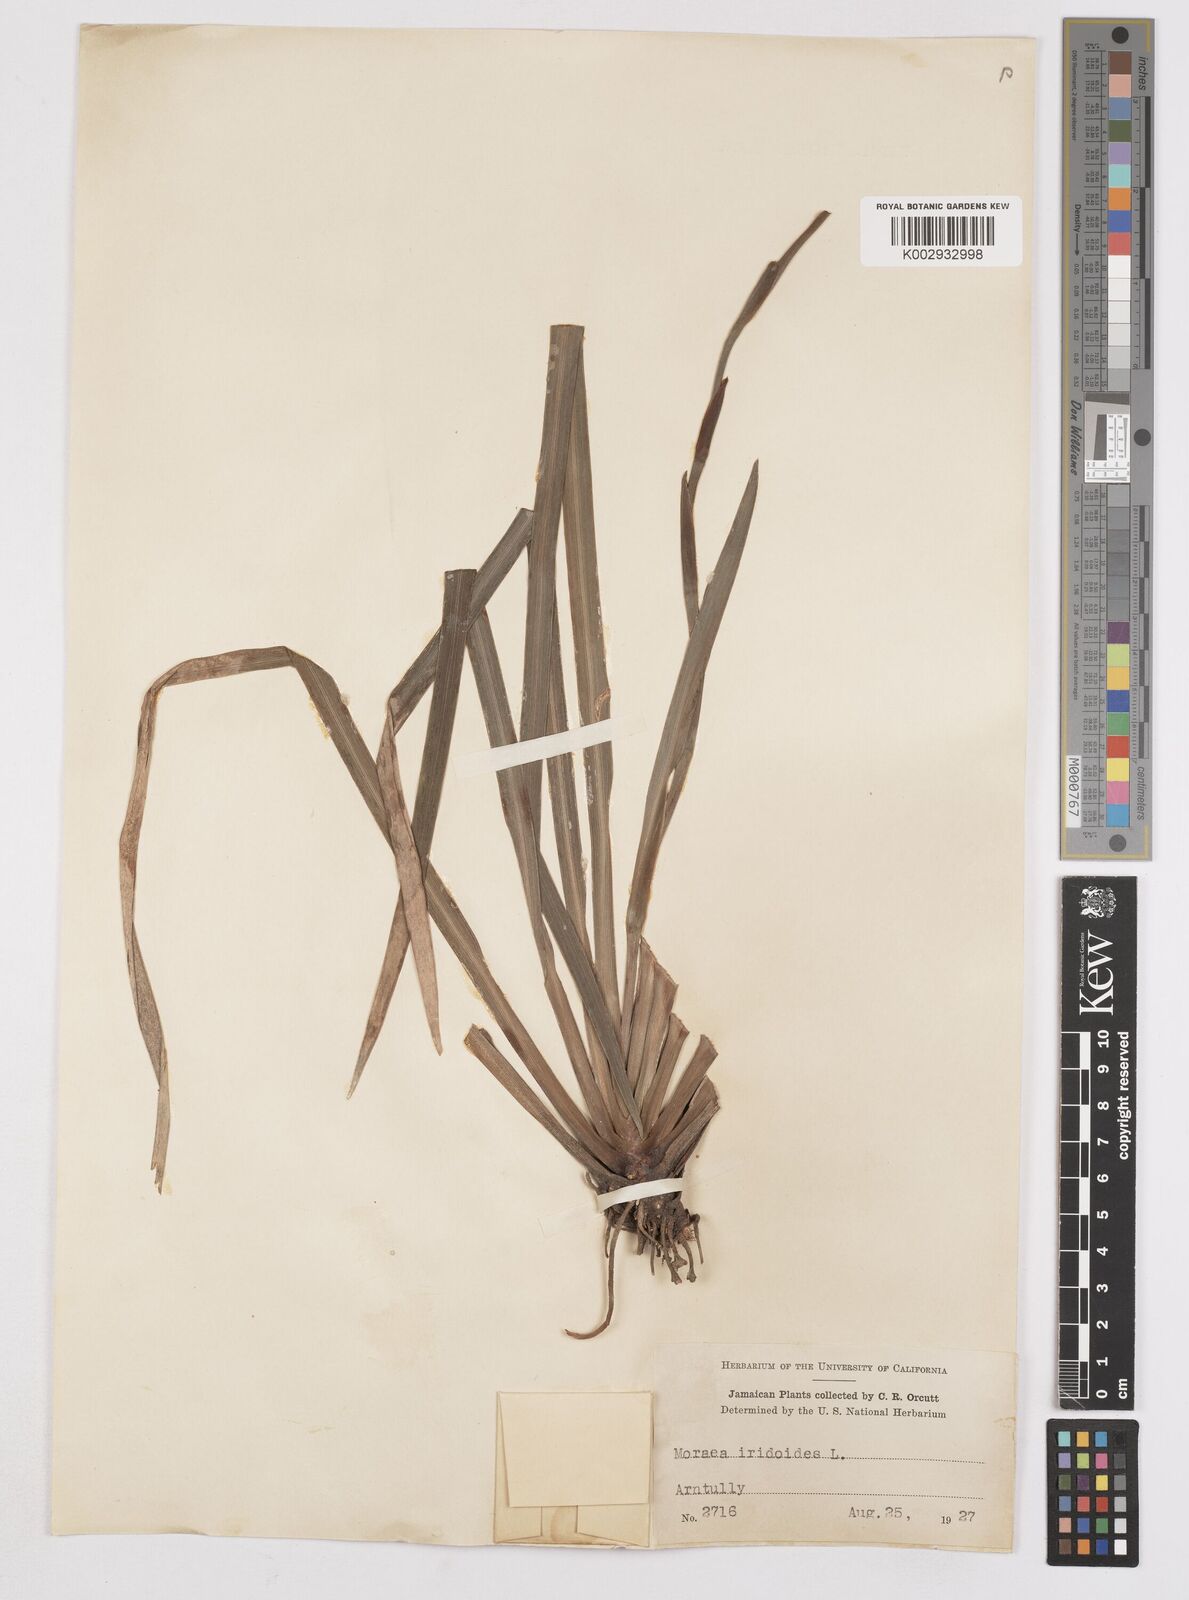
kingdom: Plantae
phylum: Tracheophyta
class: Liliopsida
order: Asparagales
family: Iridaceae
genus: Dietes
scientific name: Dietes iridioides
